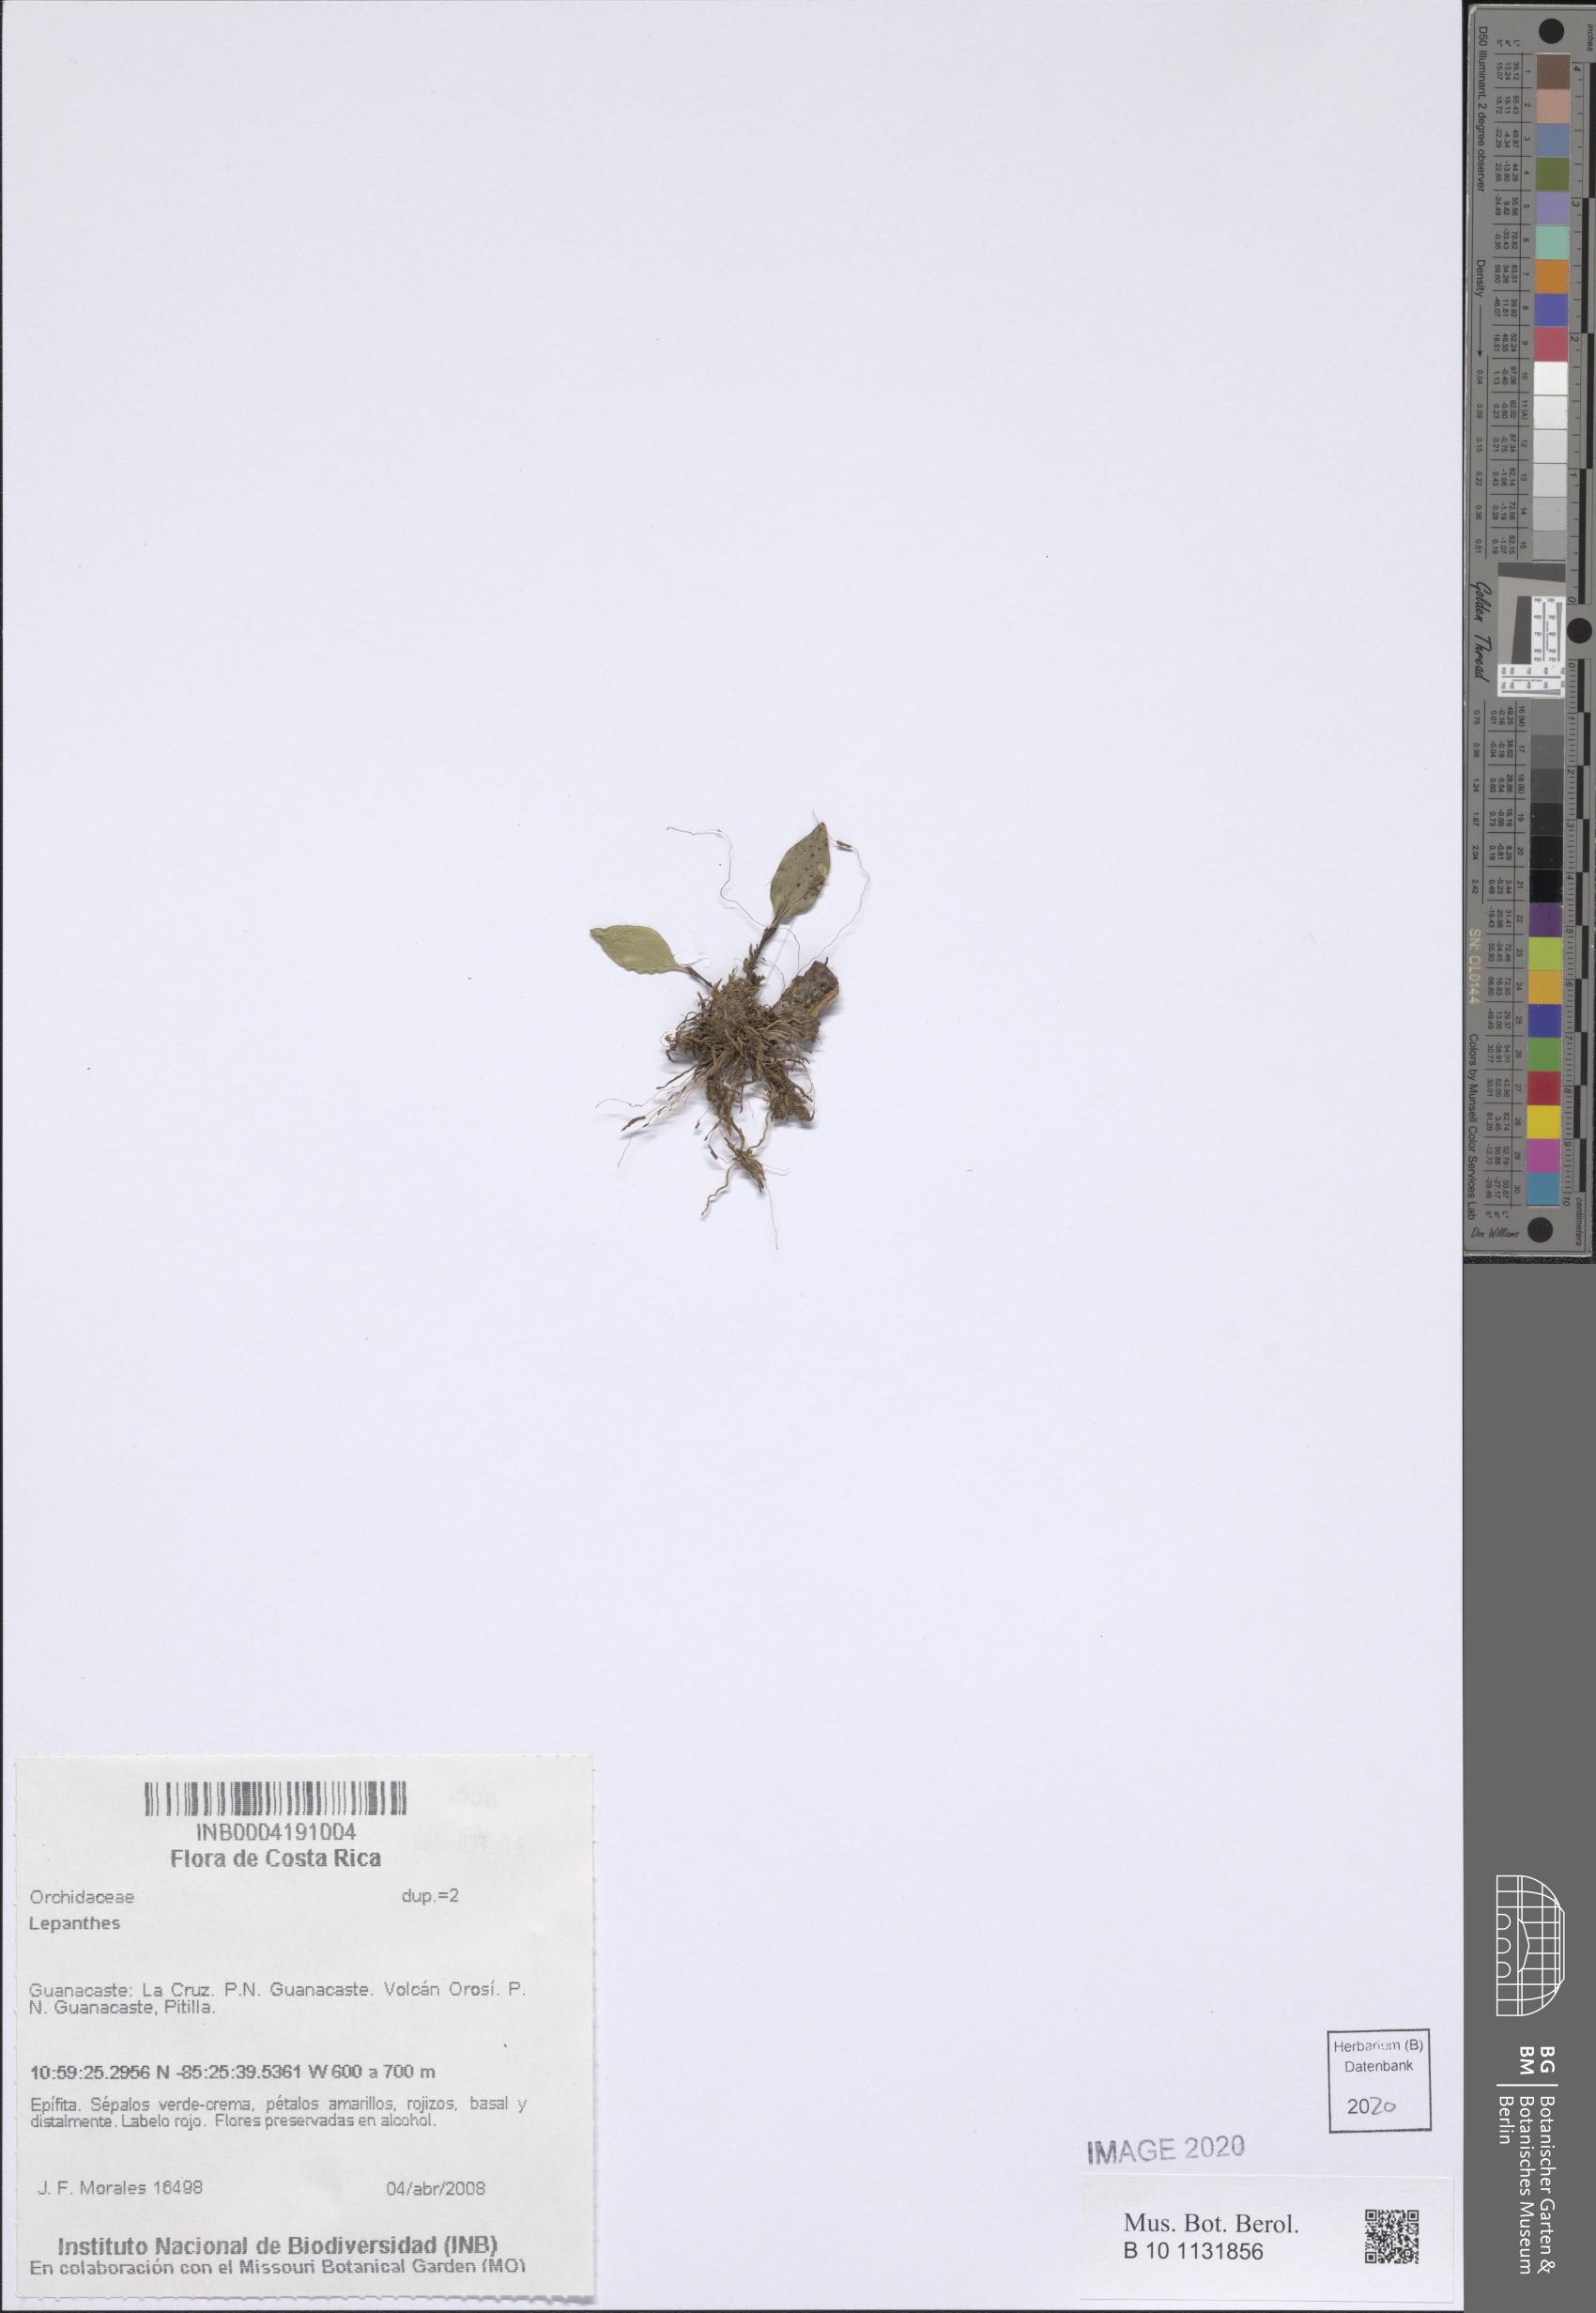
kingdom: Plantae
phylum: Tracheophyta
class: Liliopsida
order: Asparagales
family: Orchidaceae
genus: Lepanthes
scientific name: Lepanthes
